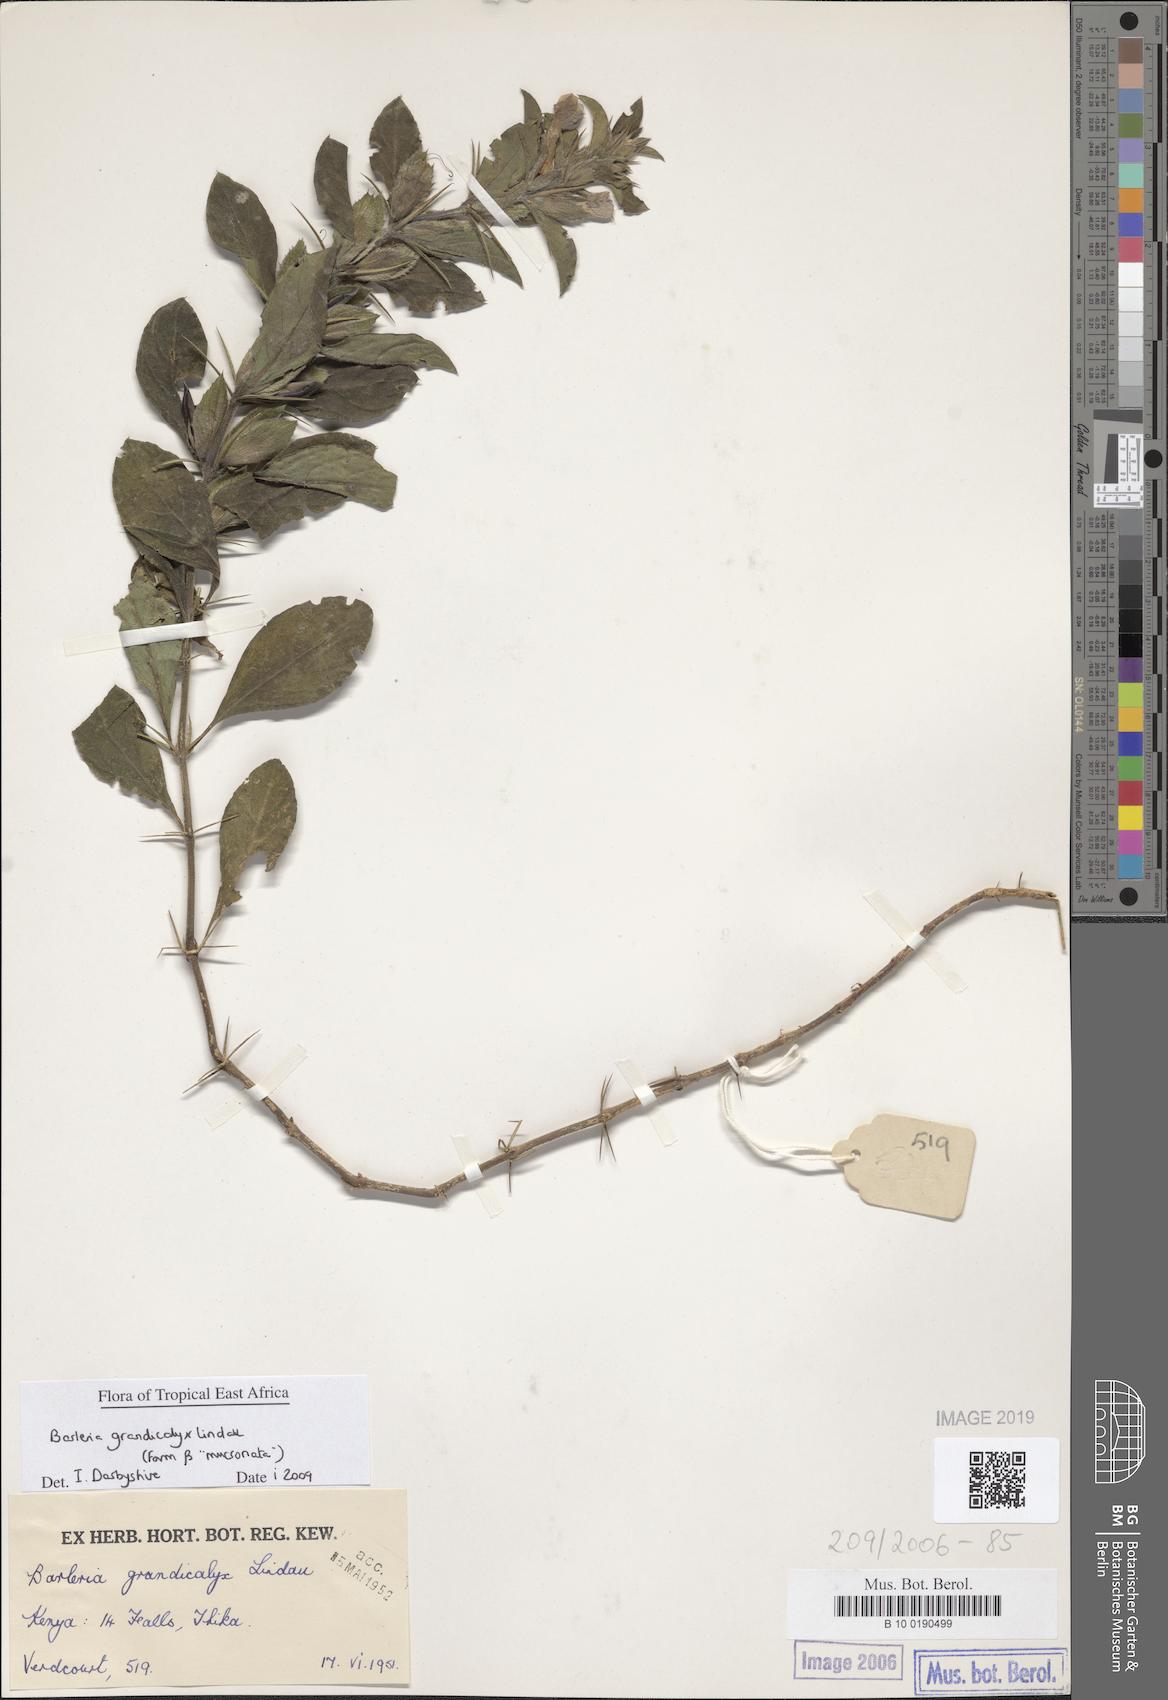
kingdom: Plantae
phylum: Tracheophyta
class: Magnoliopsida
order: Lamiales
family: Acanthaceae
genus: Barleria
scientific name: Barleria grandicalyx
